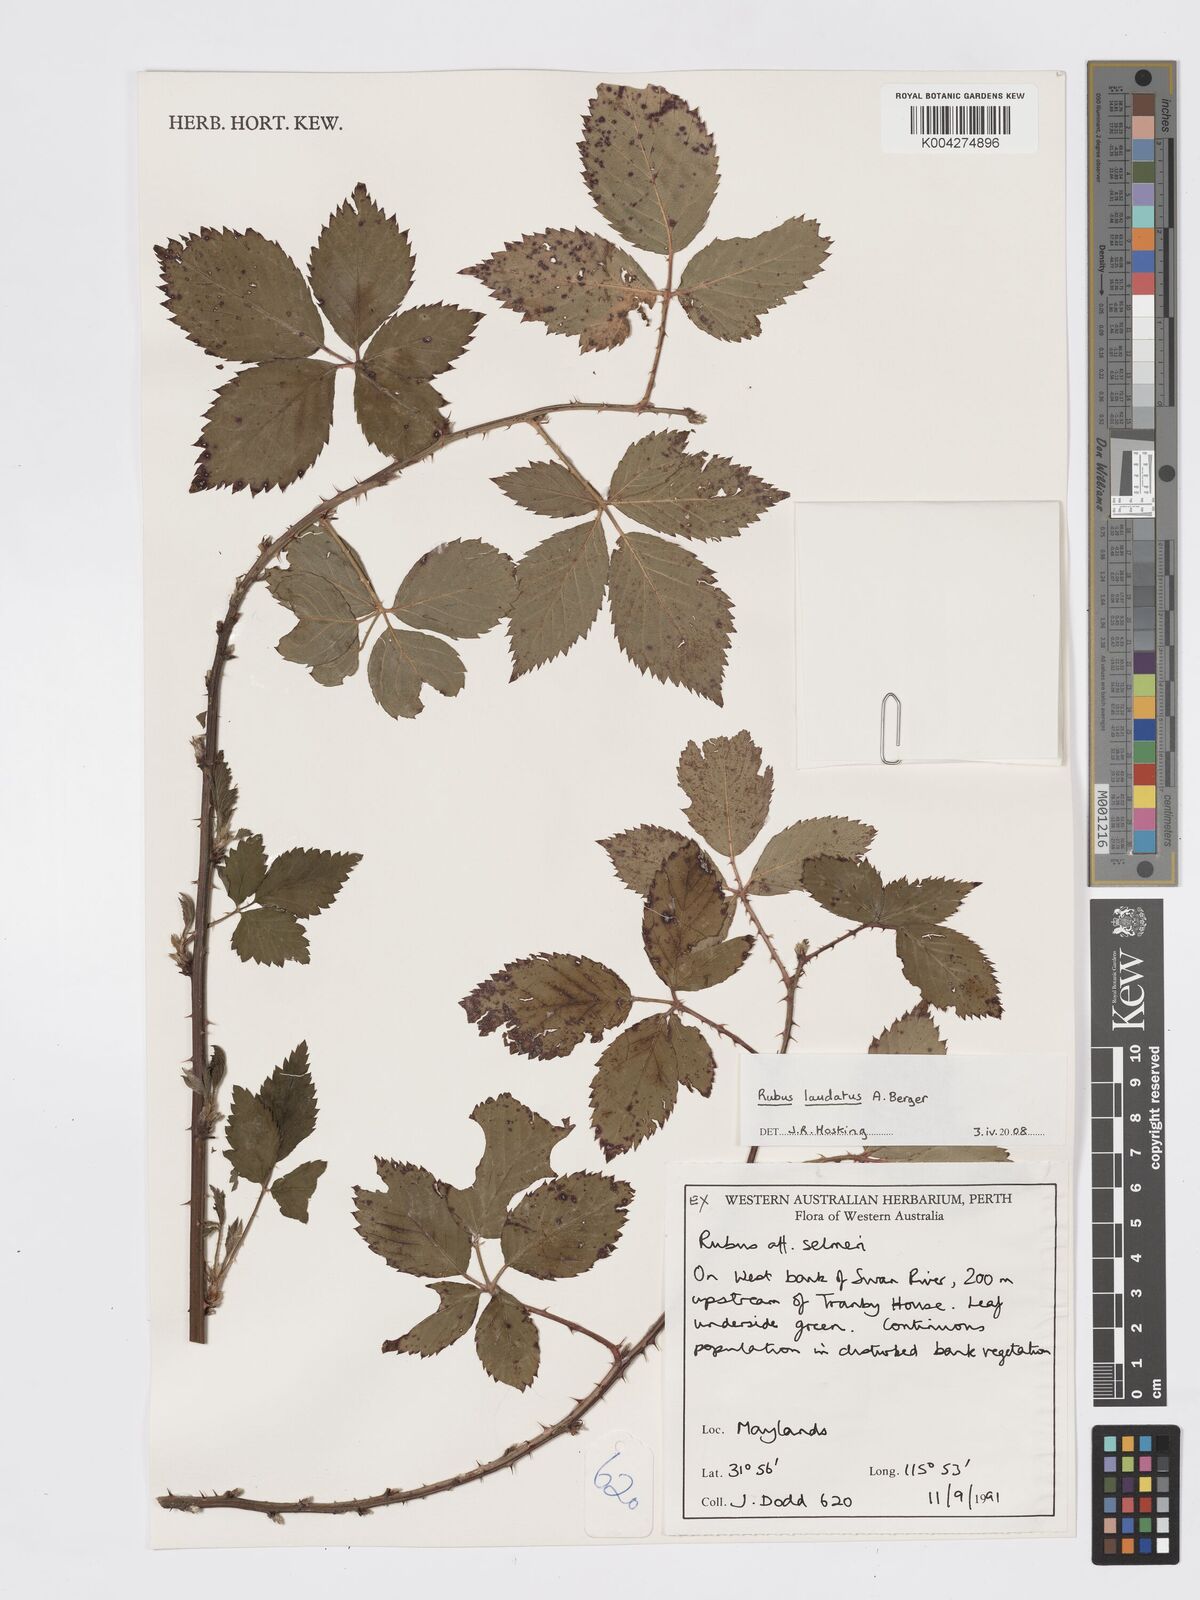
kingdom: Plantae
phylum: Tracheophyta
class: Magnoliopsida
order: Rosales
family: Rosaceae
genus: Rubus
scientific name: Rubus laudatus
